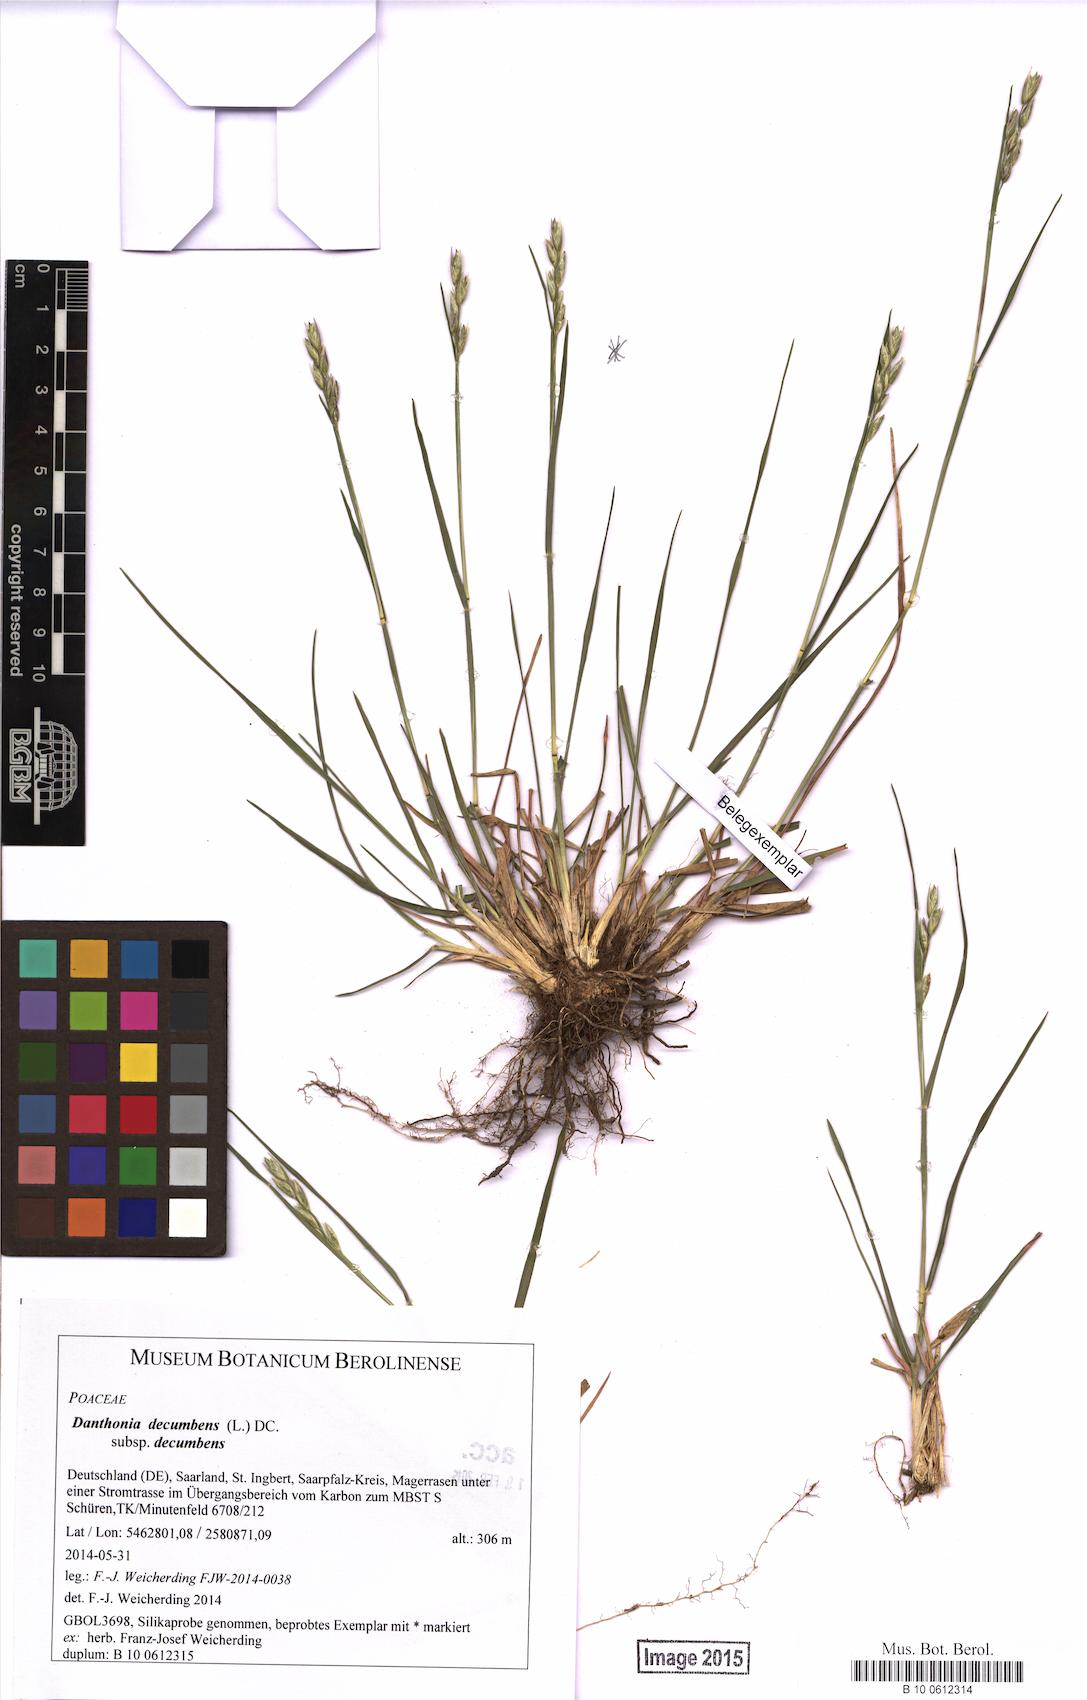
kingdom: Plantae
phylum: Tracheophyta
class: Liliopsida
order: Poales
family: Poaceae
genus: Danthonia
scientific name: Danthonia decumbens
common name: Common heathgrass
